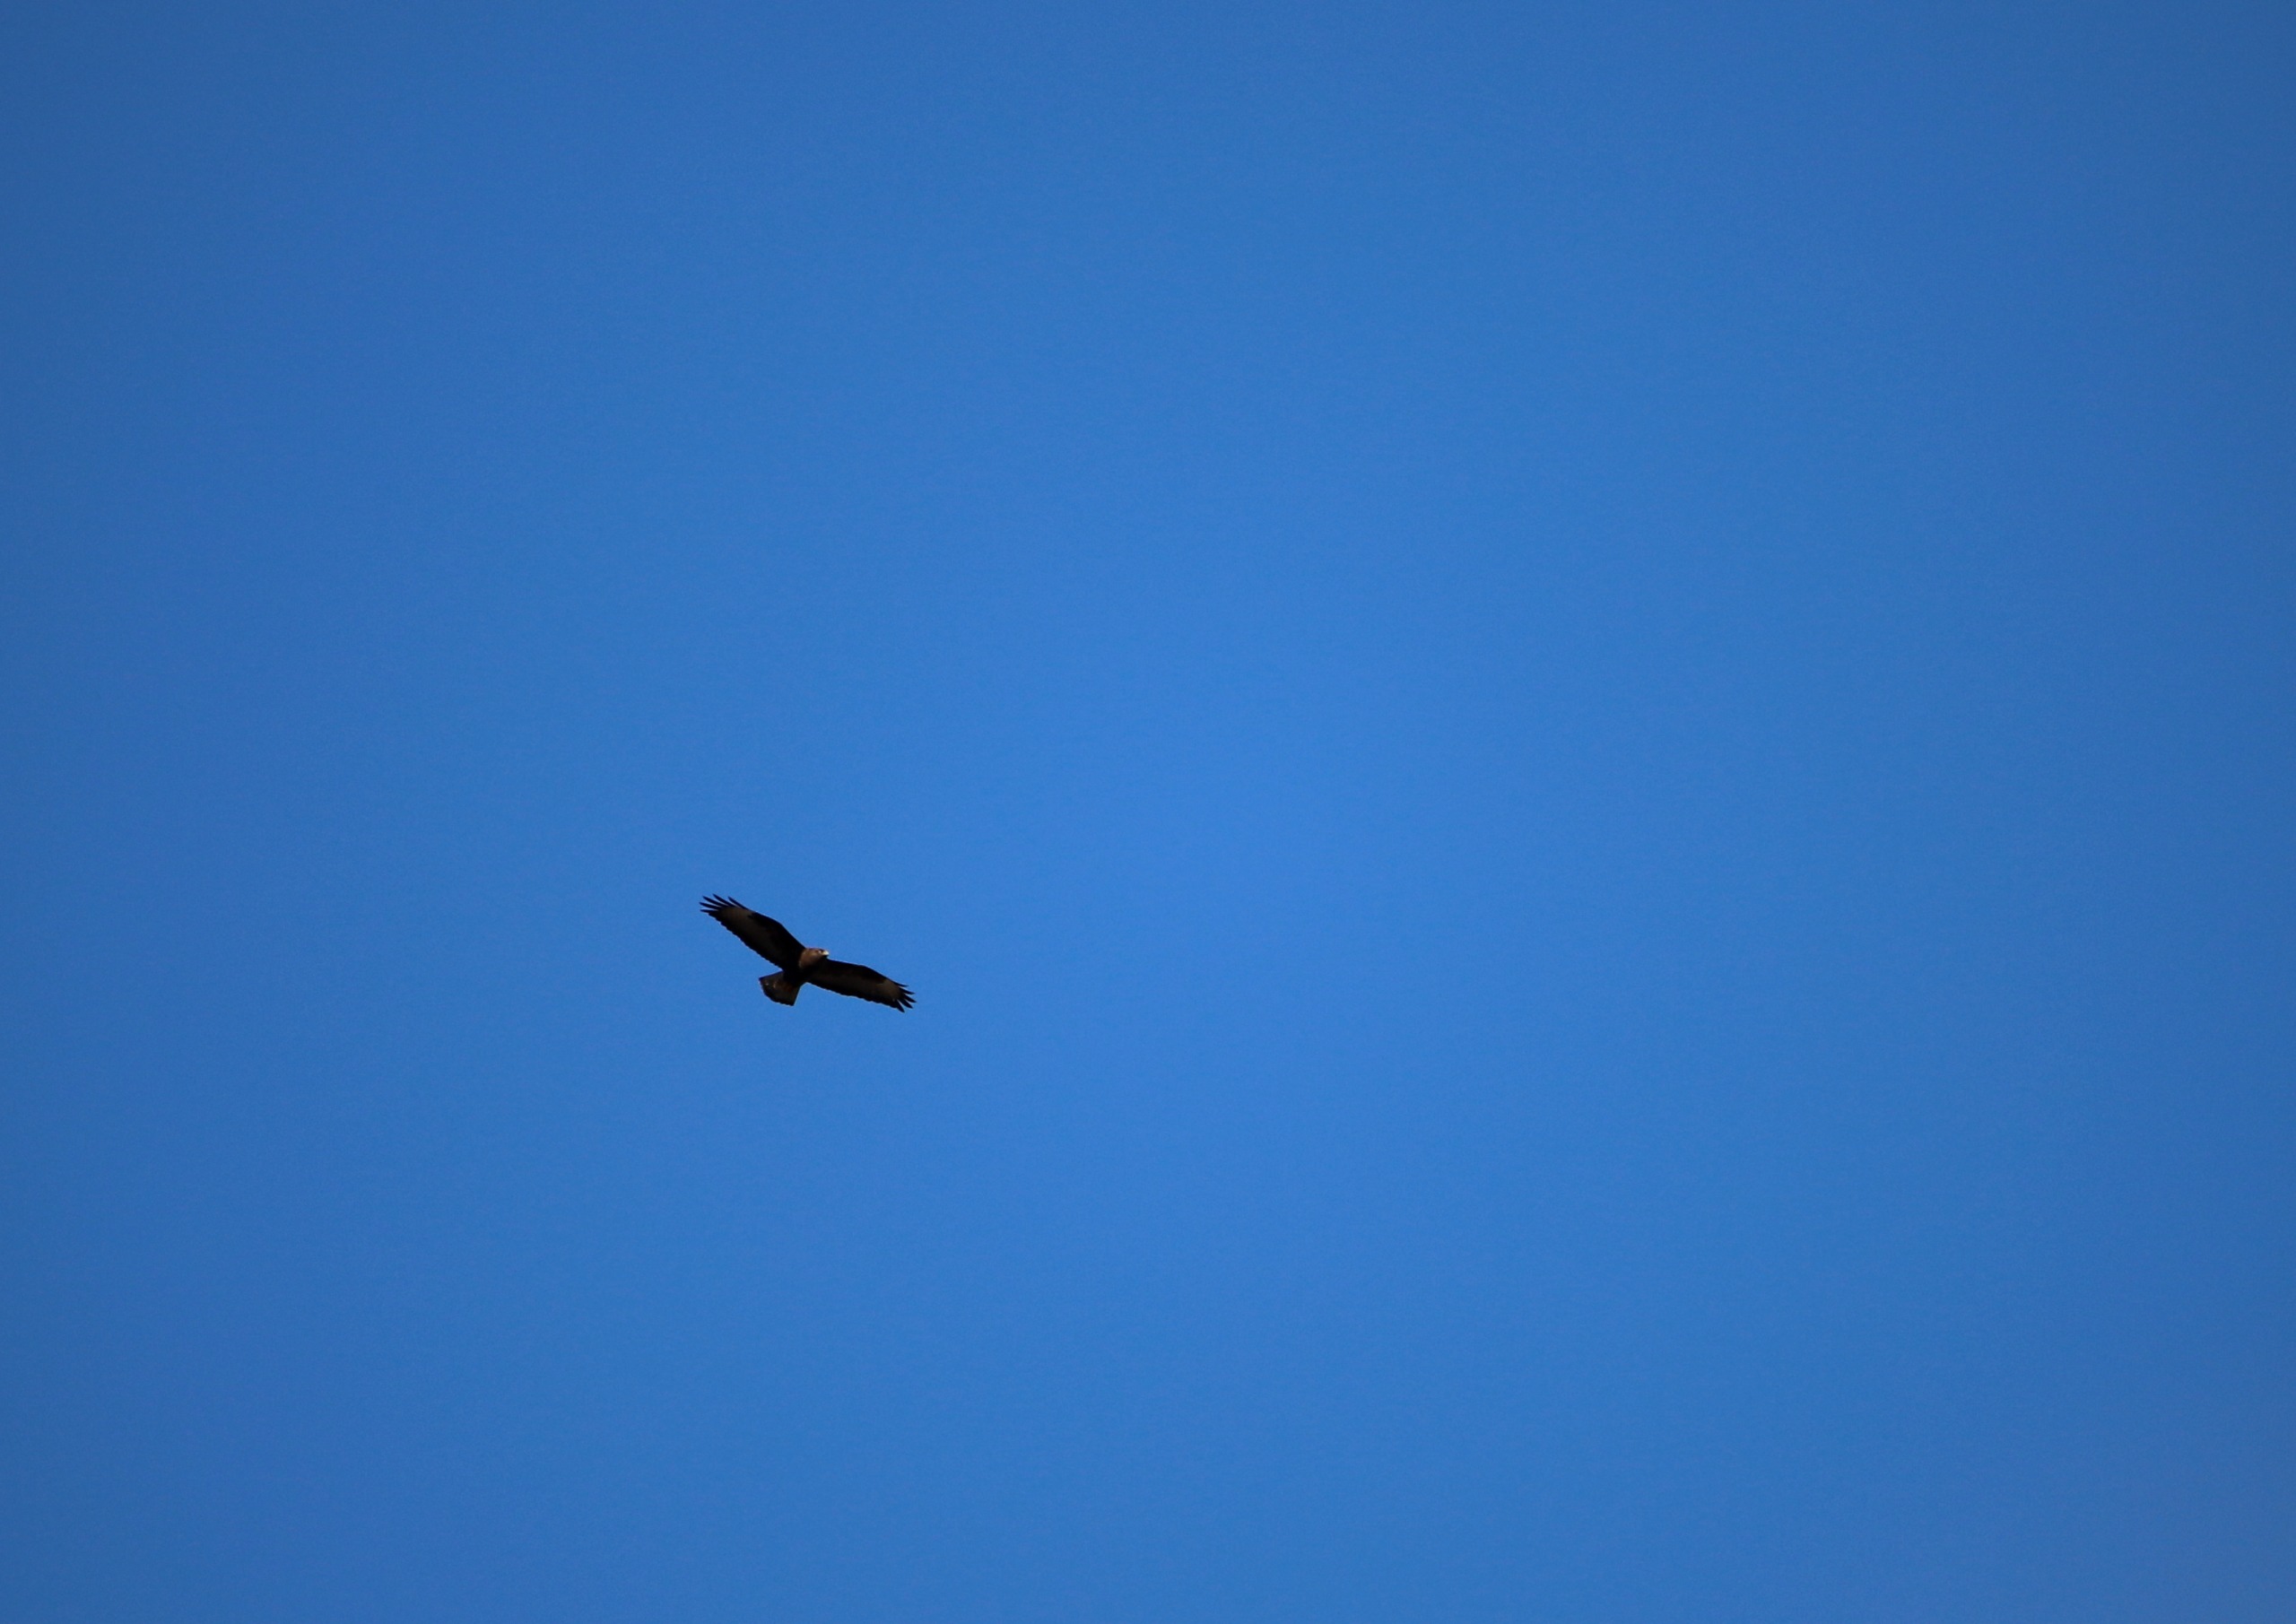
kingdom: Animalia
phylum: Chordata
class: Aves
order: Accipitriformes
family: Accipitridae
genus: Buteo
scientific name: Buteo buteo
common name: Musvåge
